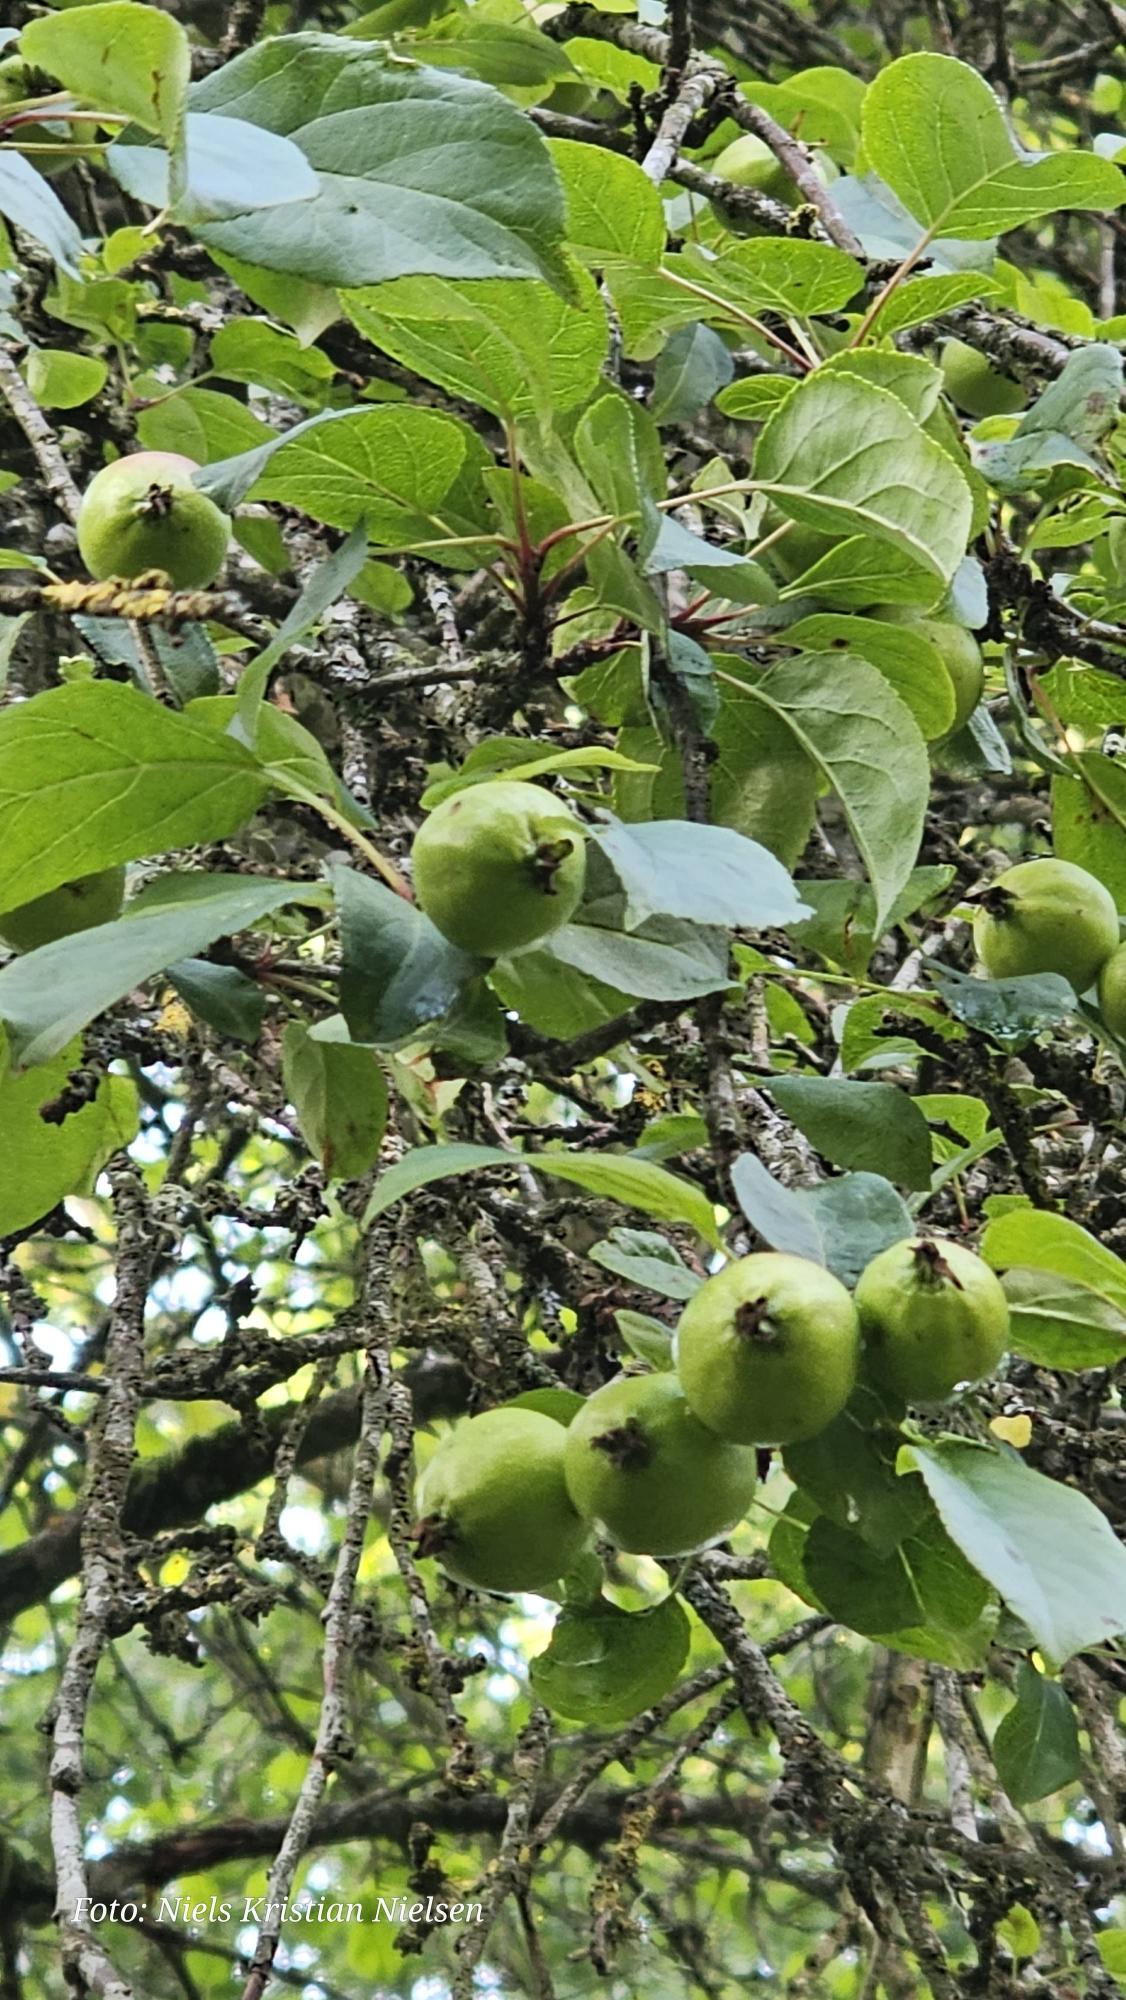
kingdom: Plantae
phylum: Tracheophyta
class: Magnoliopsida
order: Rosales
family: Rosaceae
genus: Malus
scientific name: Malus domestica
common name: Sød-æble
